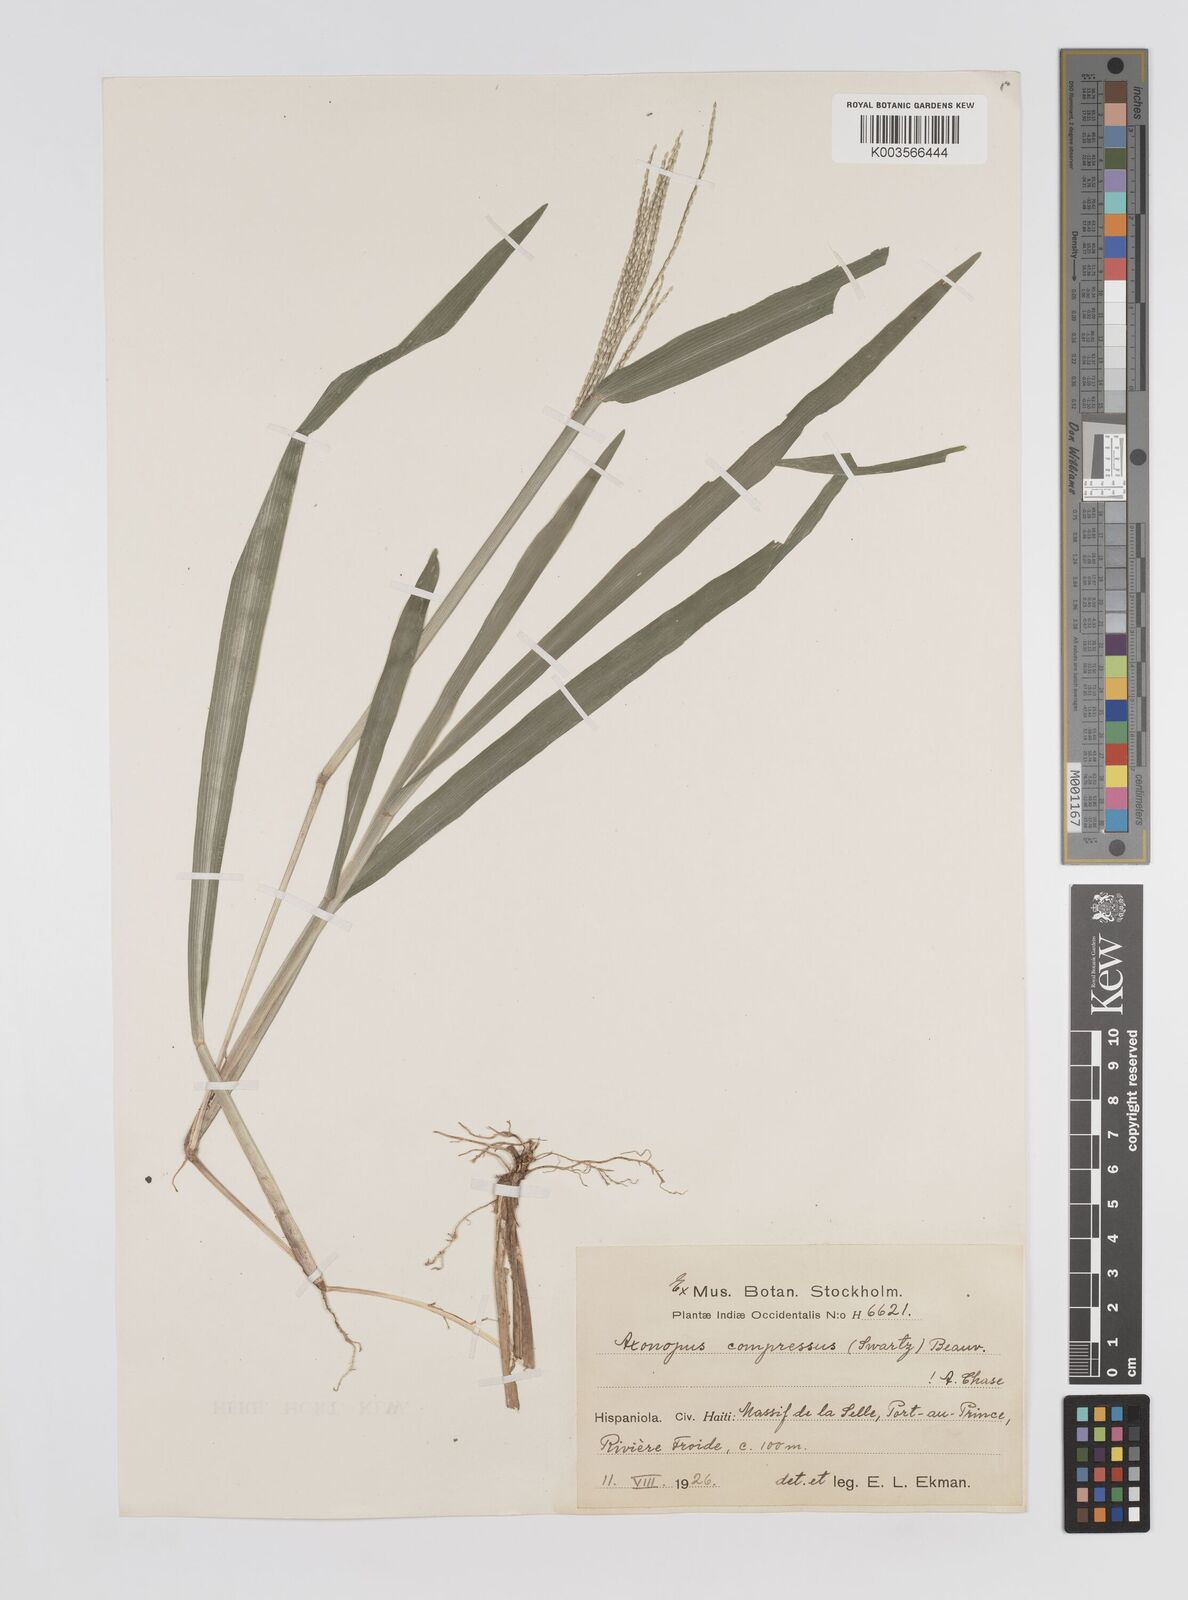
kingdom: Plantae
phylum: Tracheophyta
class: Liliopsida
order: Poales
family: Poaceae
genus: Axonopus
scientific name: Axonopus compressus
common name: American carpet grass
